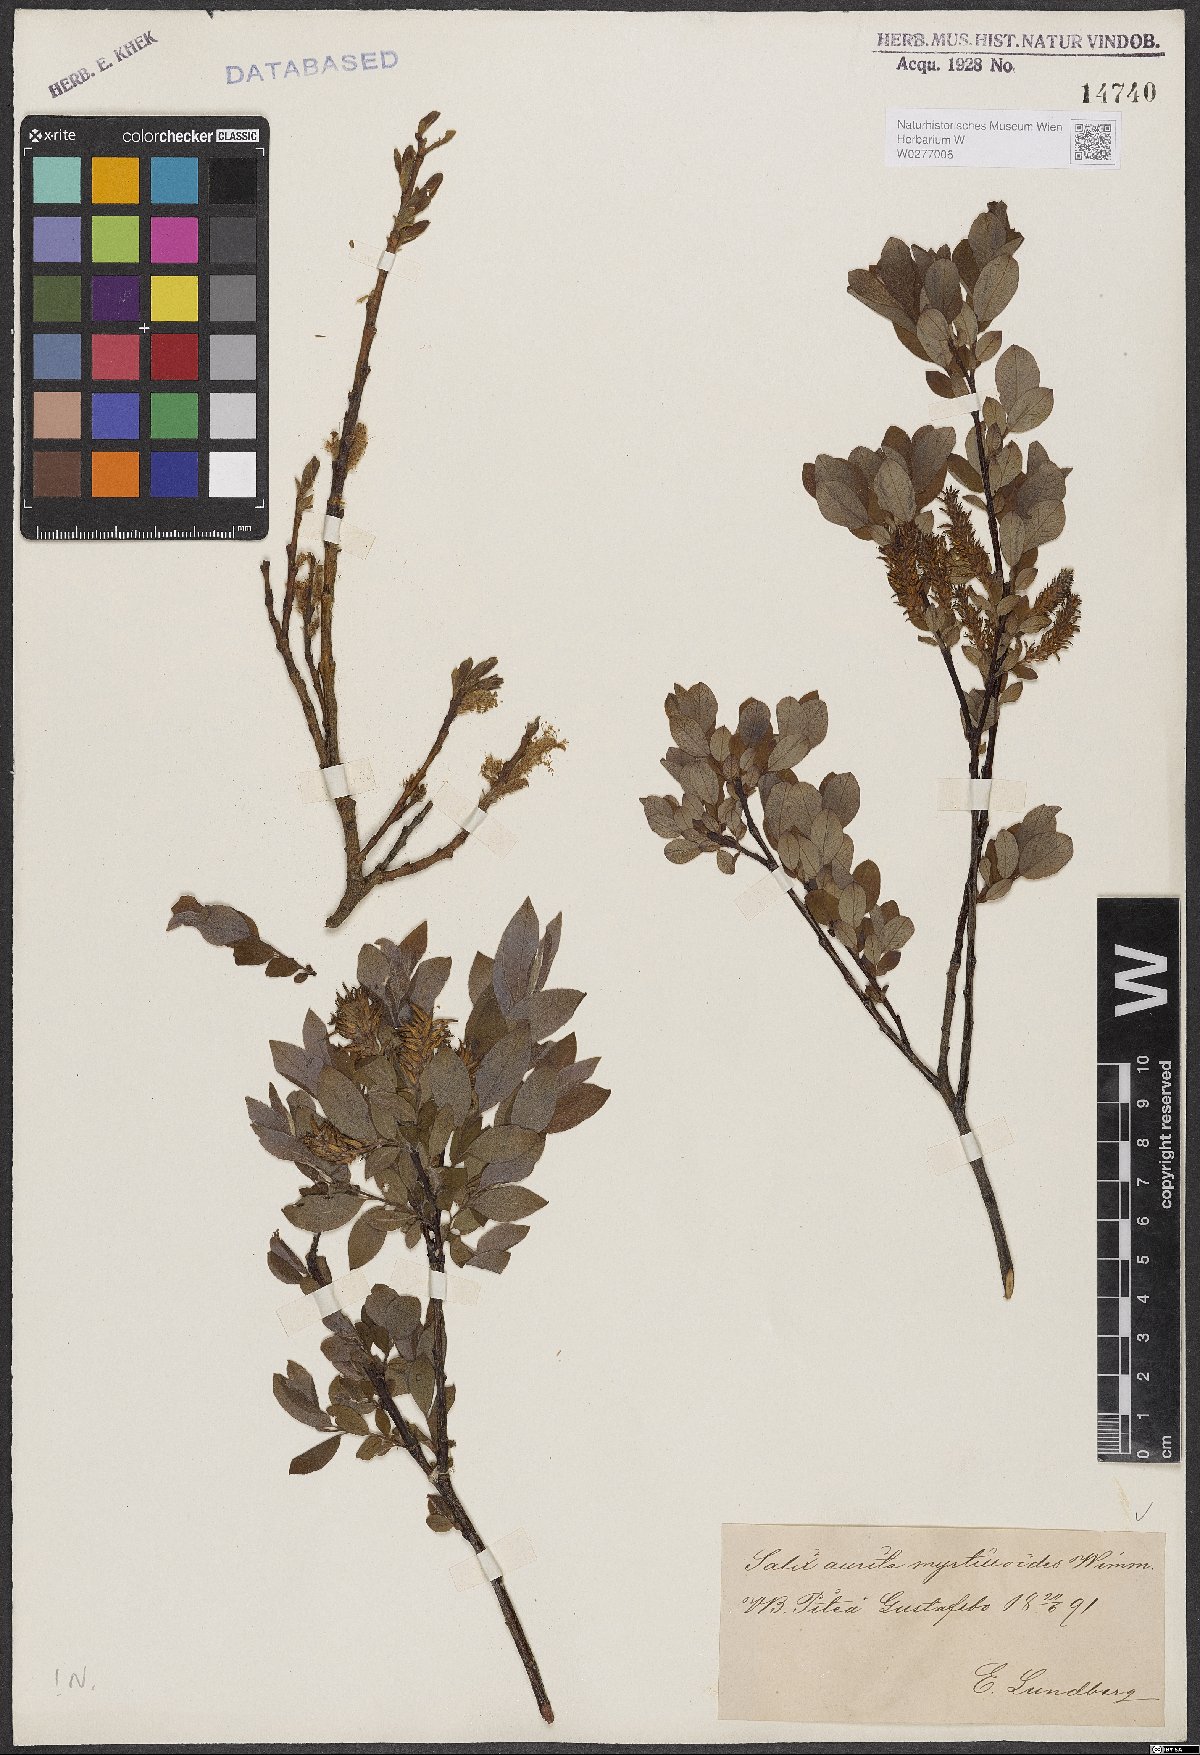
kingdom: Plantae
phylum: Tracheophyta
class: Magnoliopsida
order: Malpighiales
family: Salicaceae
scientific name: Salicaceae
